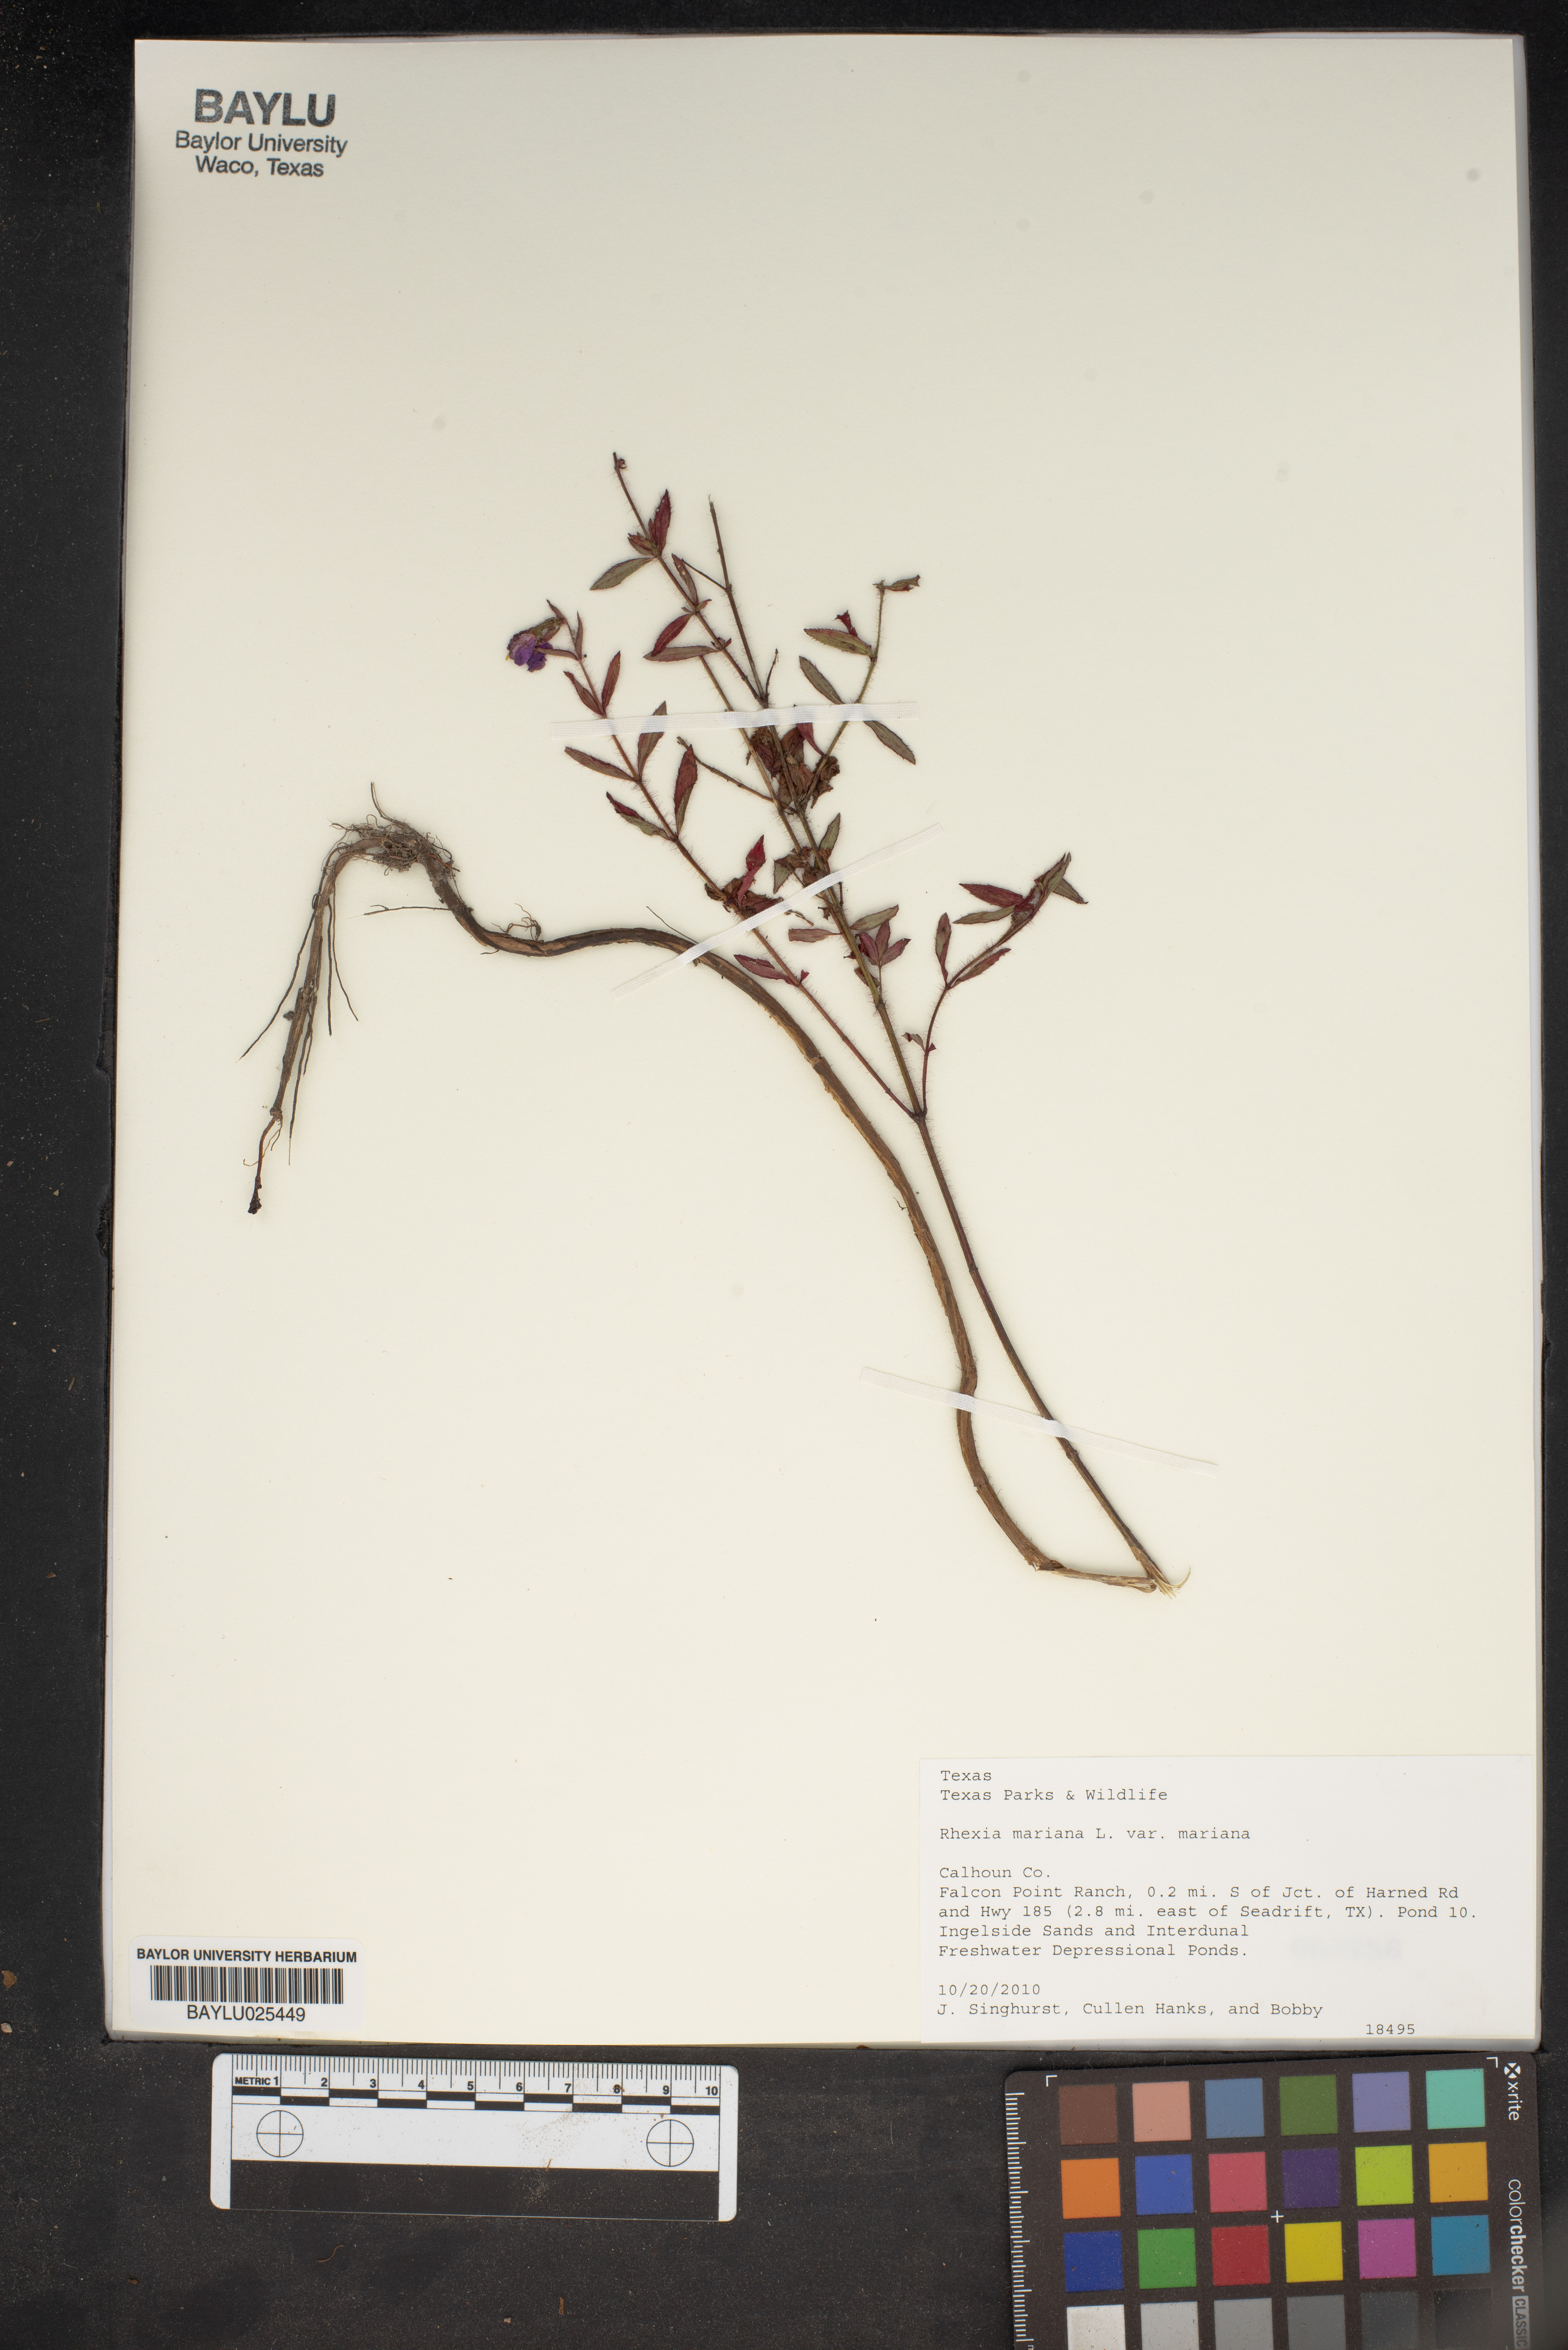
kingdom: Plantae
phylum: Tracheophyta
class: Magnoliopsida
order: Myrtales
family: Melastomataceae
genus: Rhexia
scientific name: Rhexia mariana
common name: Dull meadow-pitcher
